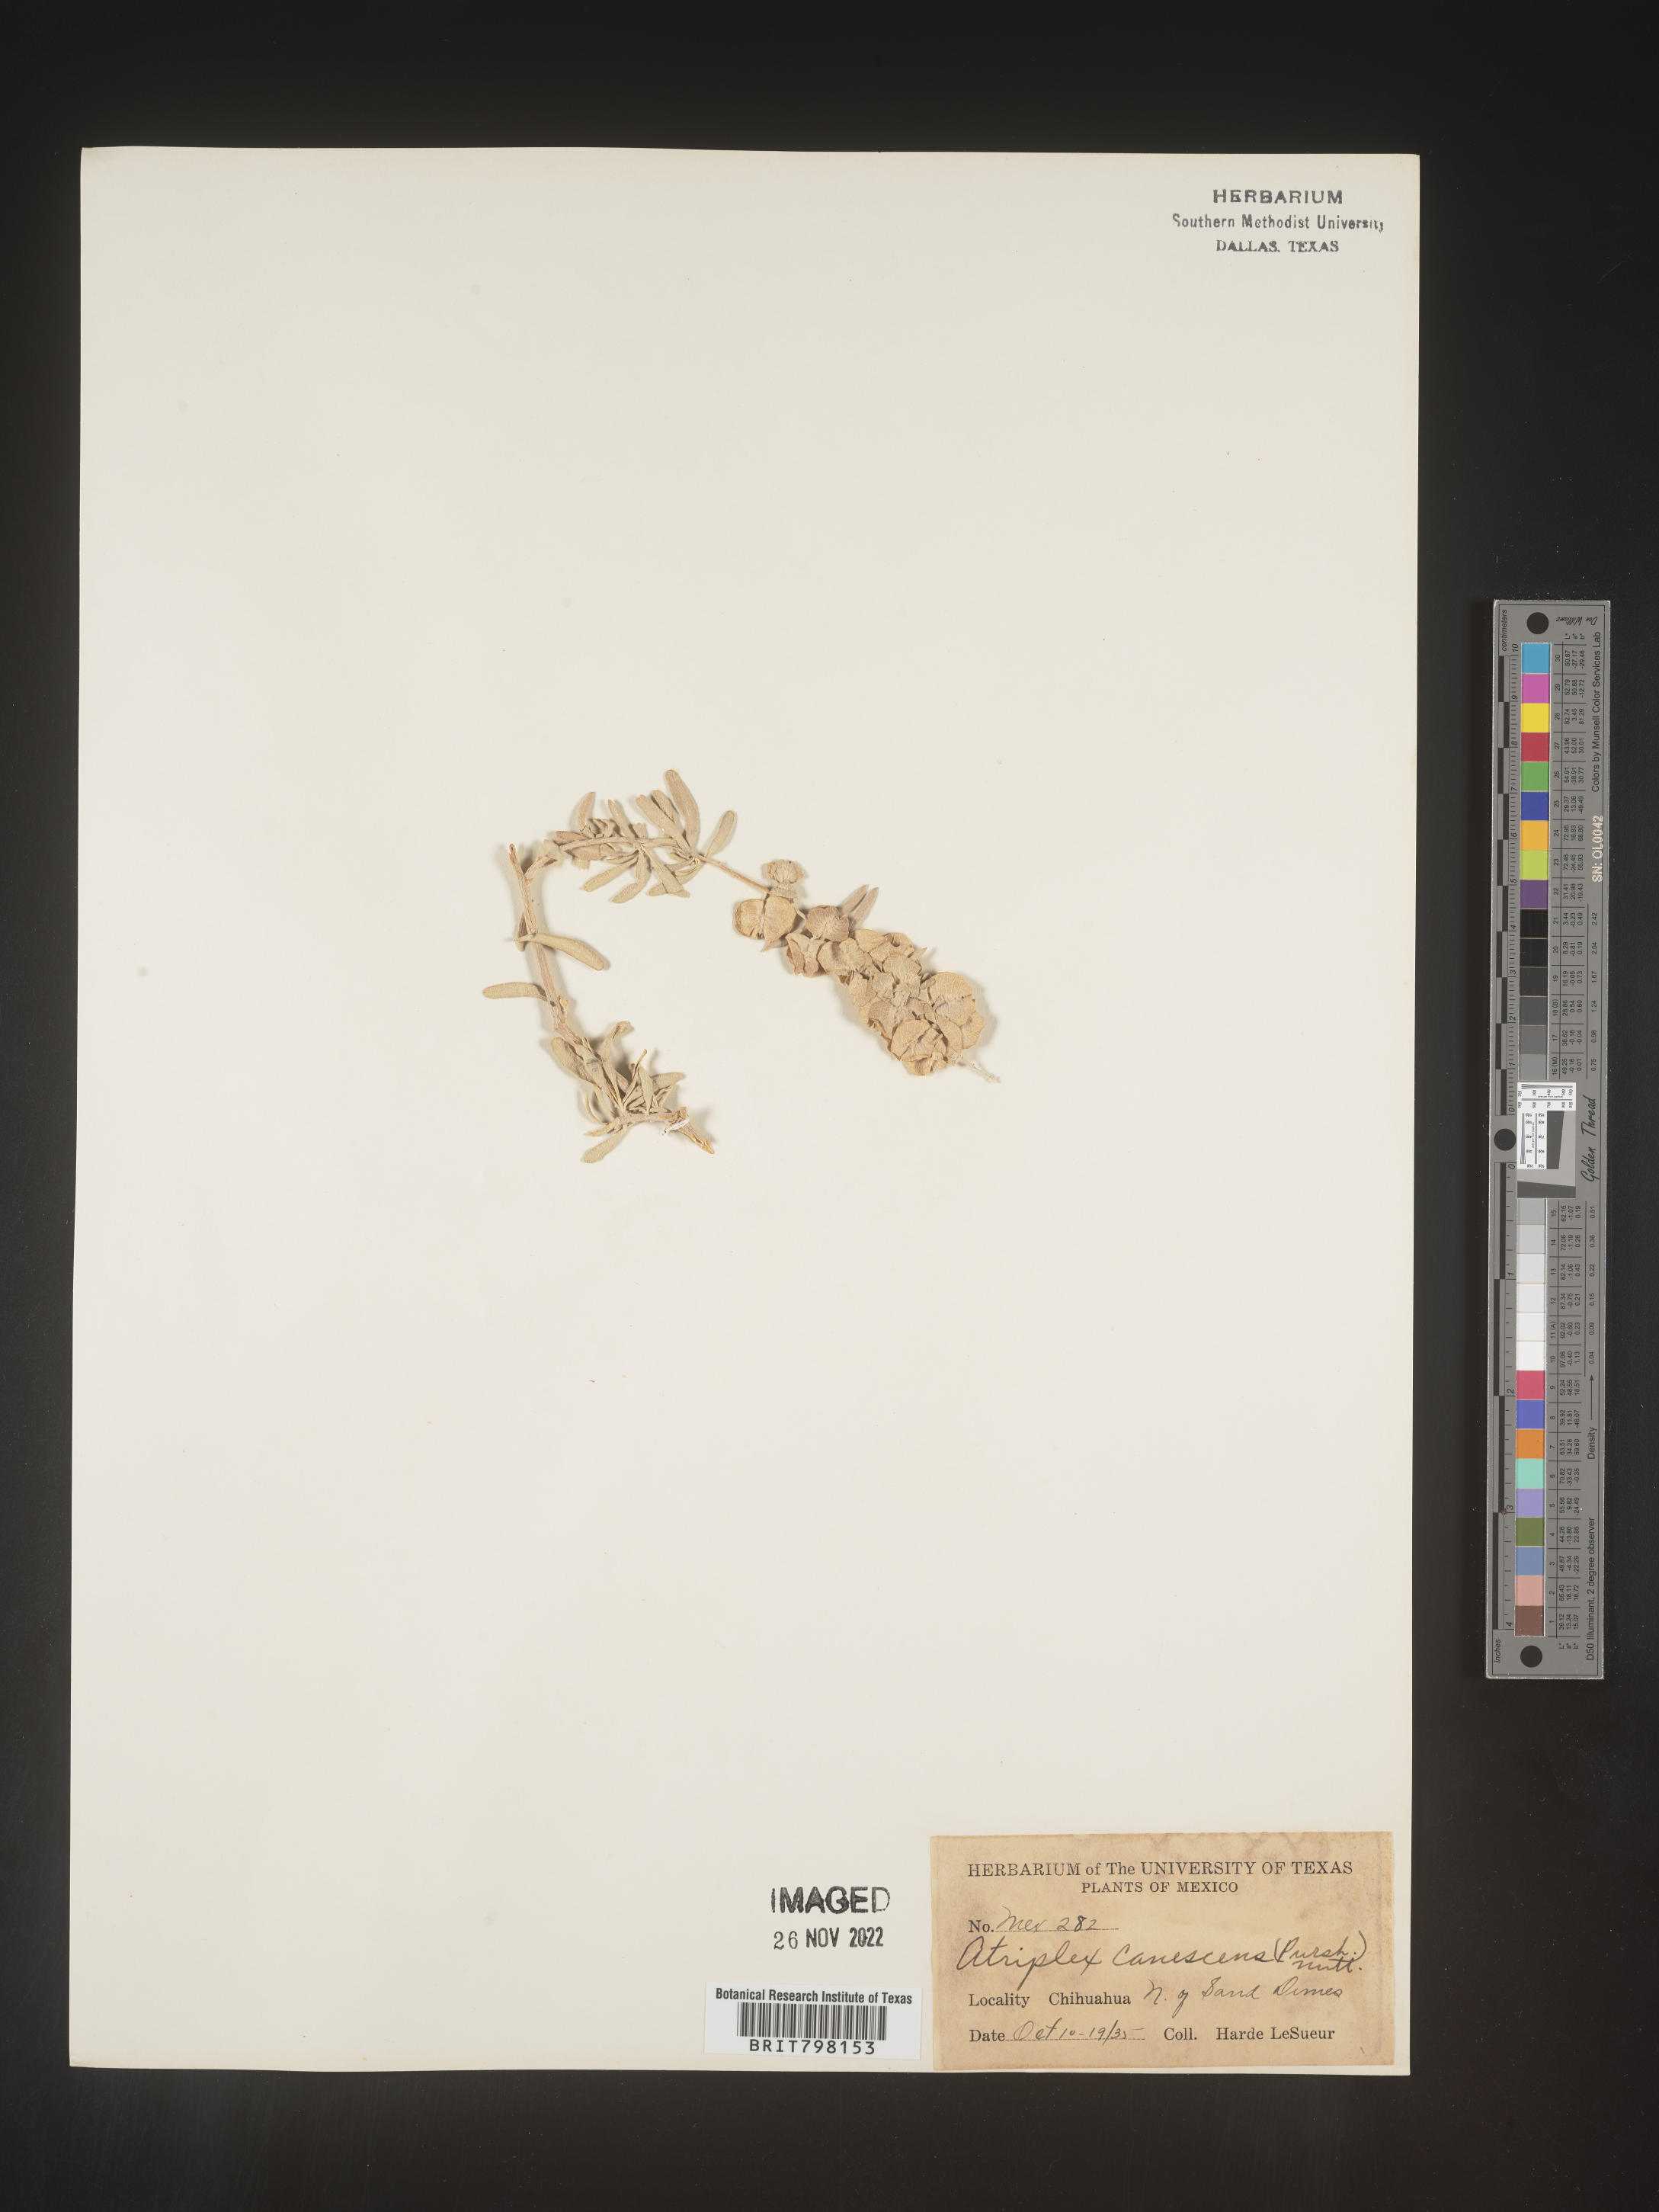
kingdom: Plantae
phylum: Tracheophyta
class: Magnoliopsida
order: Caryophyllales
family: Amaranthaceae
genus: Atriplex
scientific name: Atriplex canescens
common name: Four-wing saltbush
